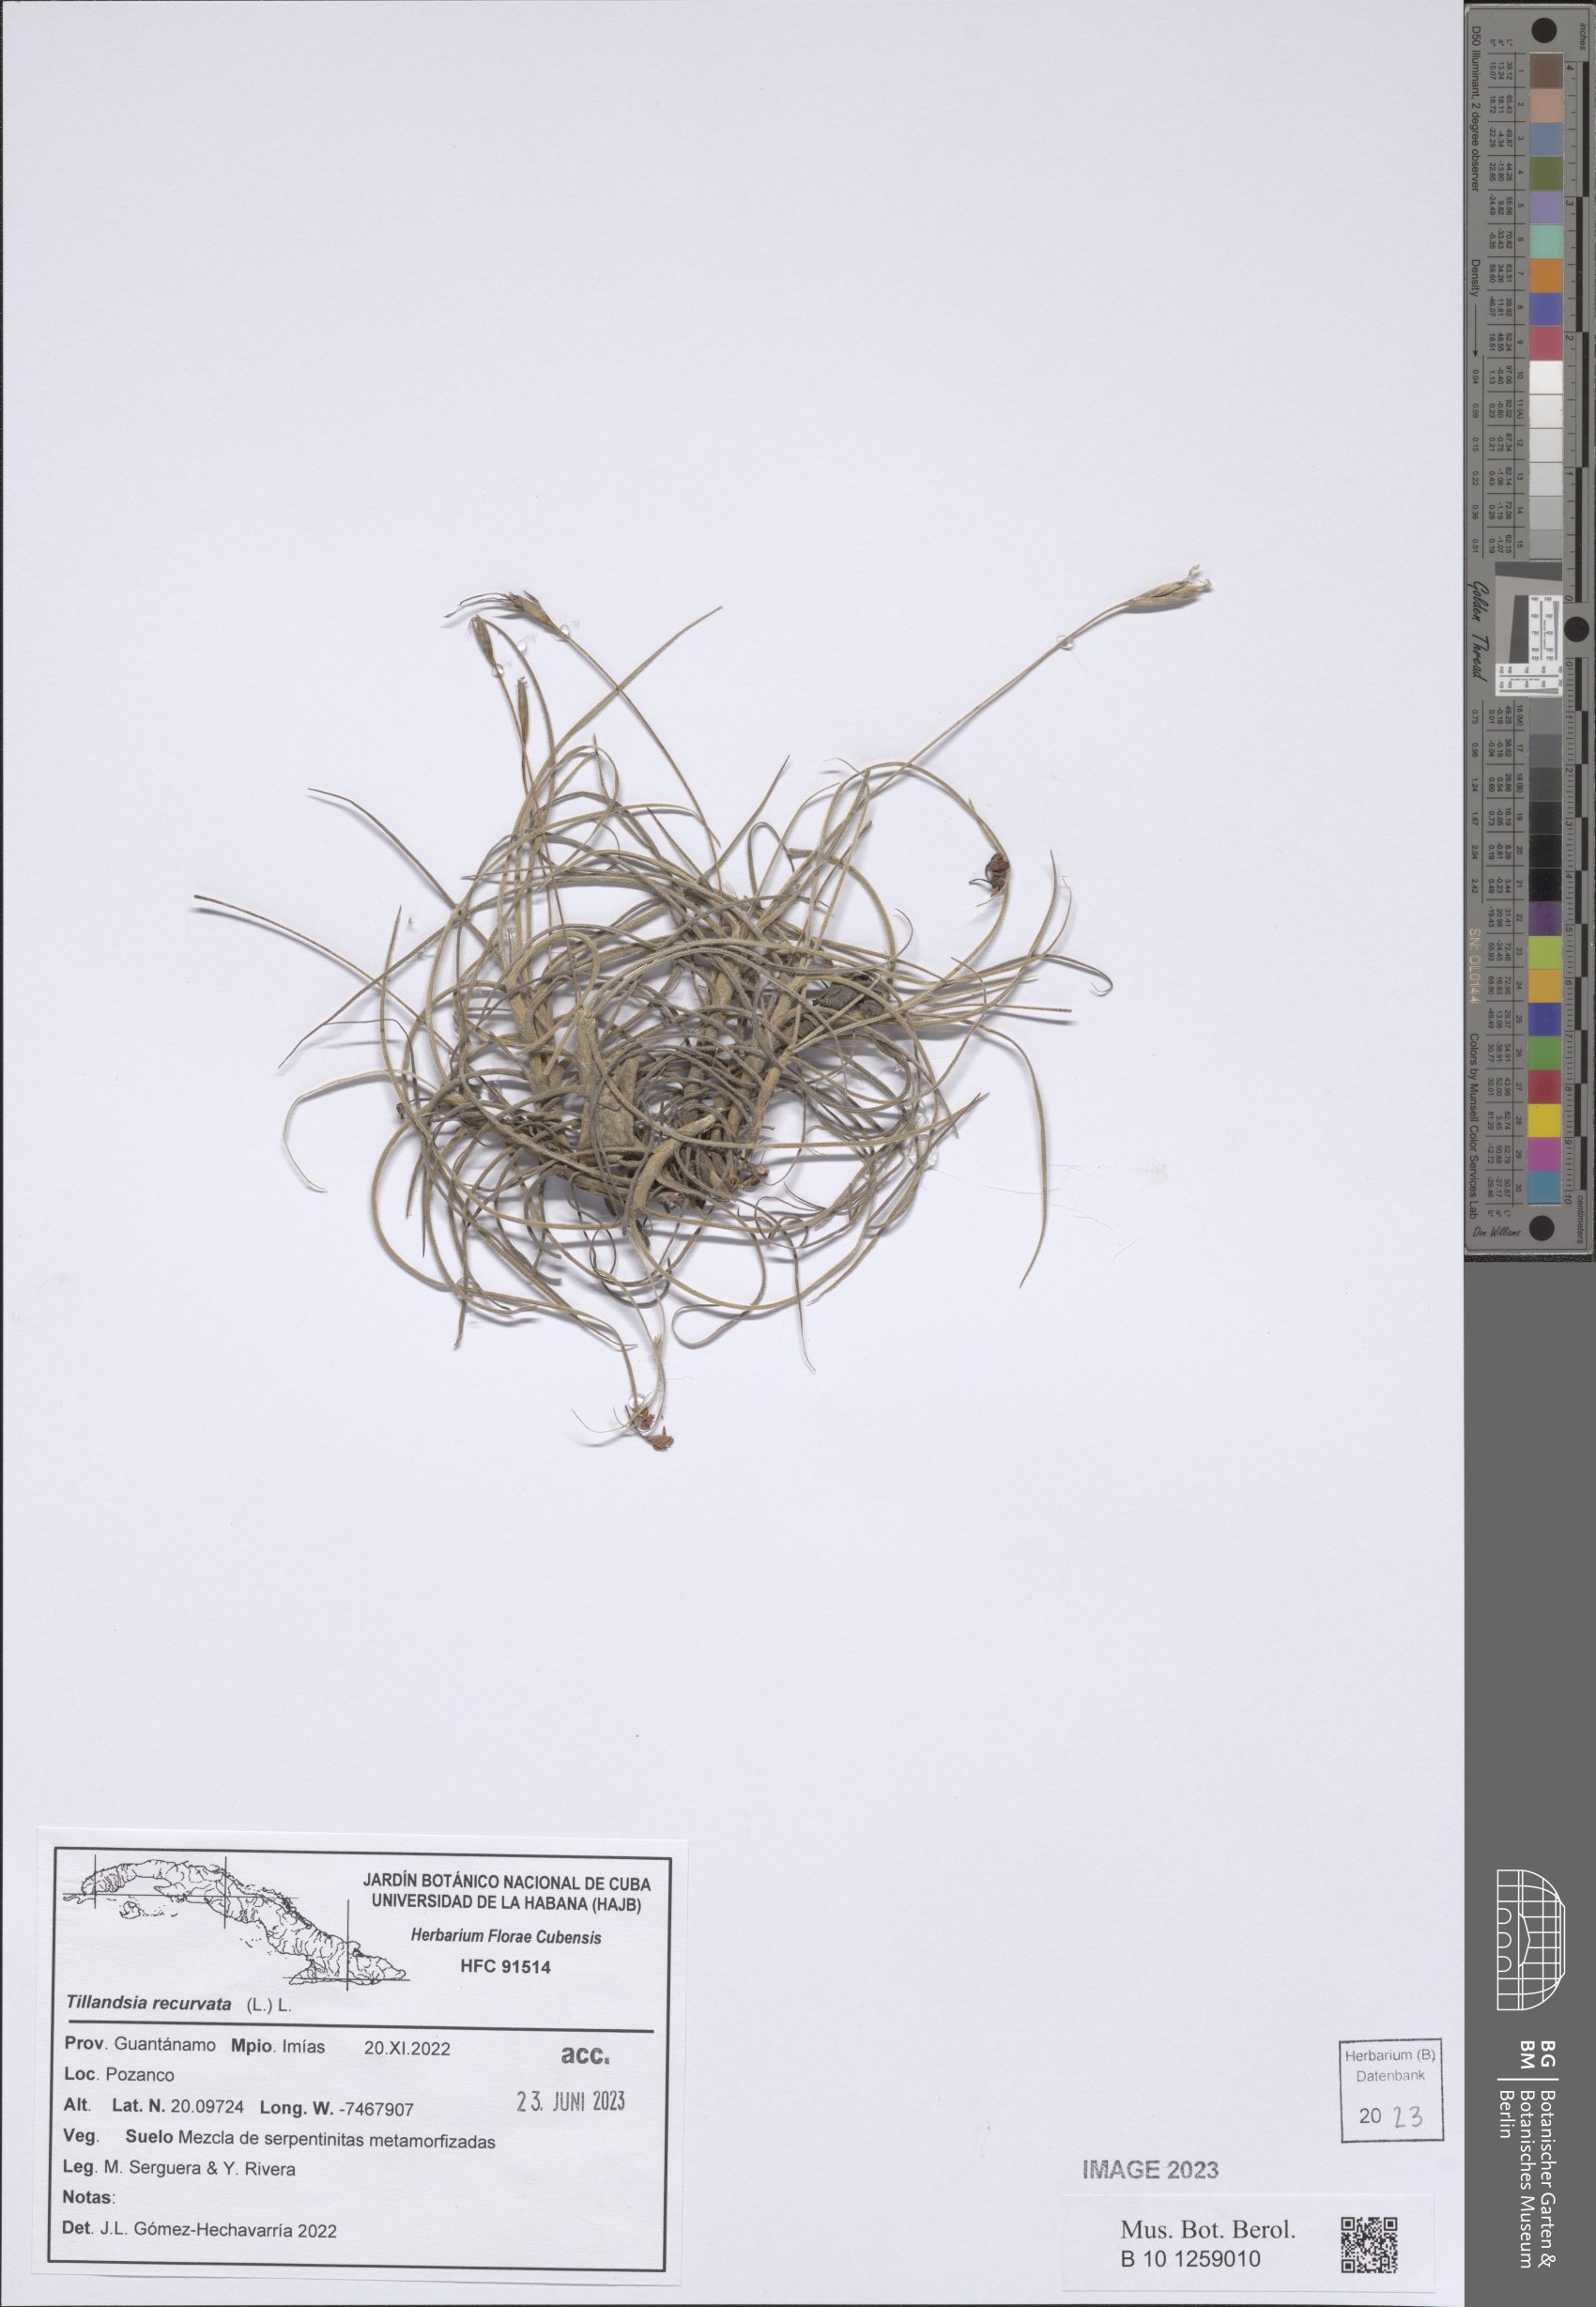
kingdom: Plantae
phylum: Tracheophyta
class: Liliopsida
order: Poales
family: Bromeliaceae
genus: Tillandsia
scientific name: Tillandsia recurvata
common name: Small ballmoss
